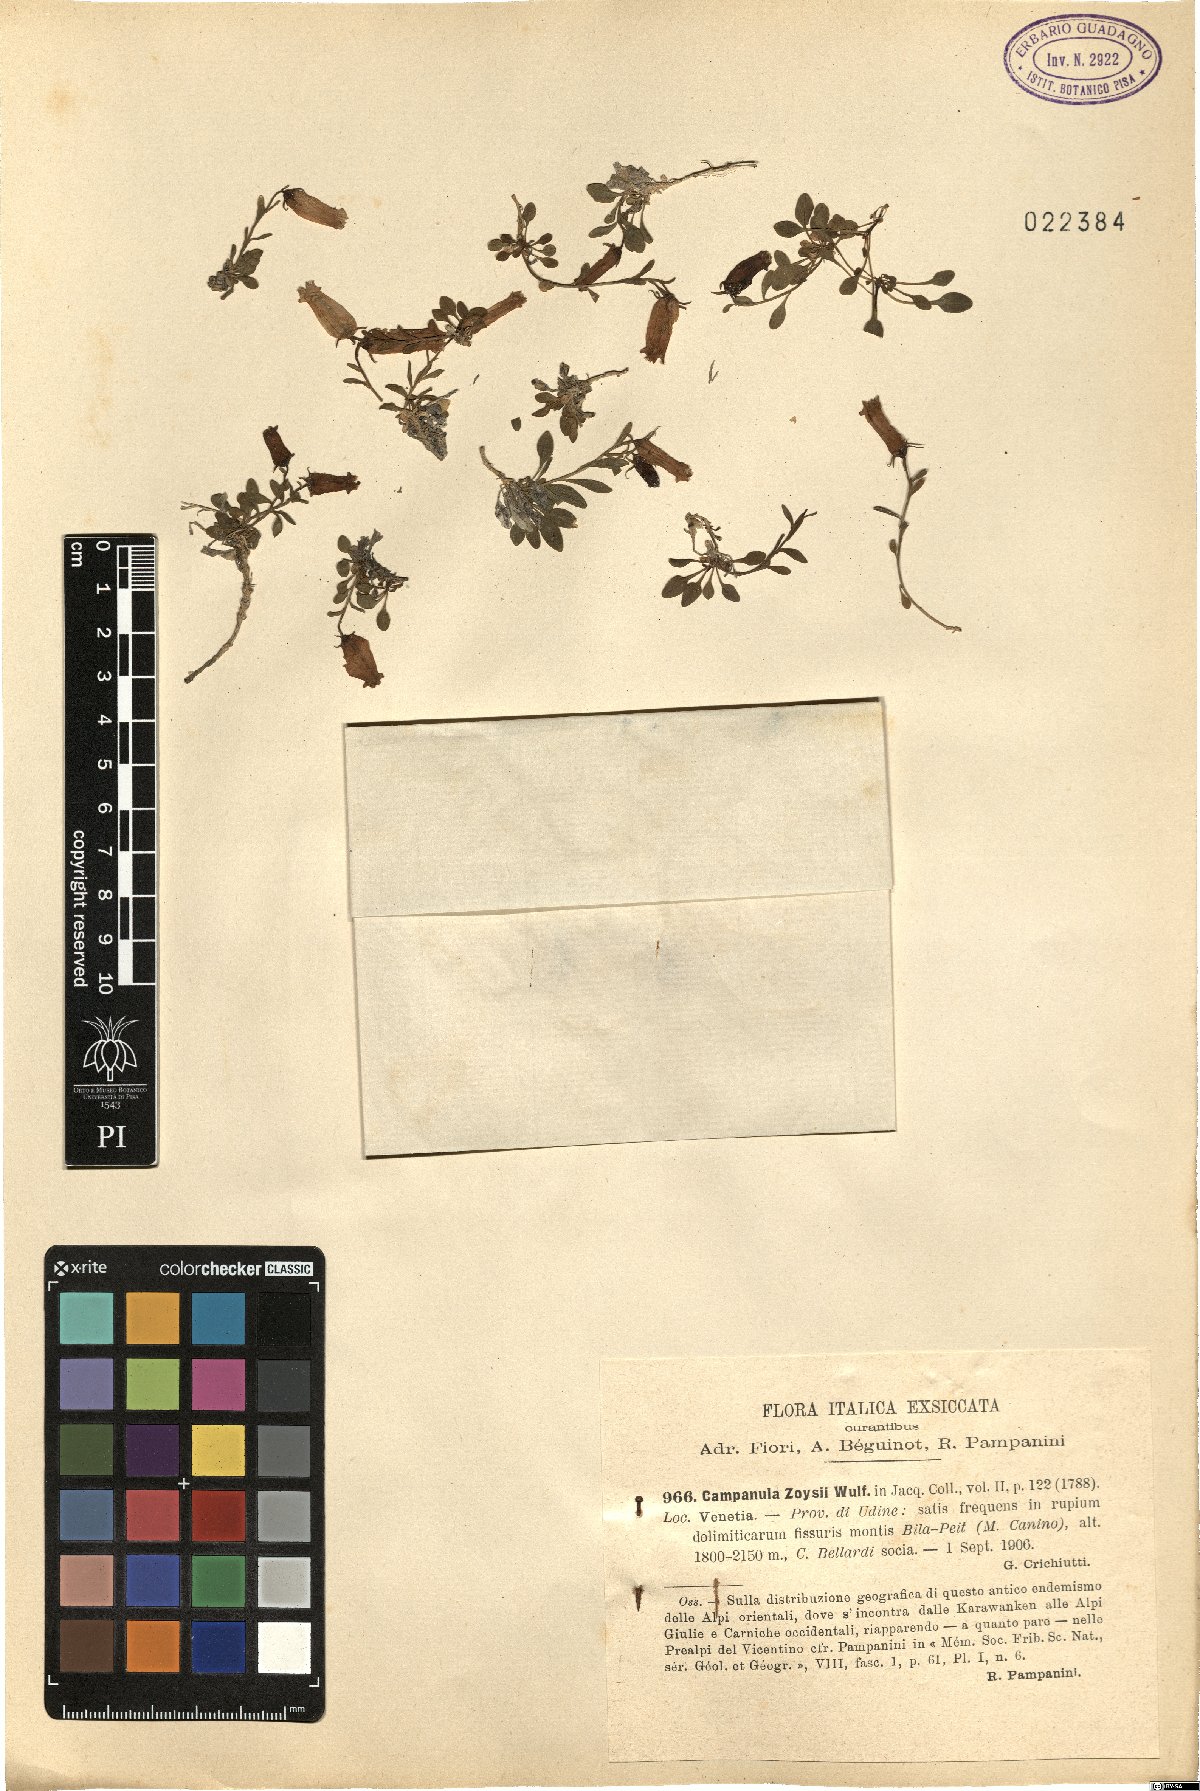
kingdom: Plantae
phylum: Tracheophyta
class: Magnoliopsida
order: Asterales
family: Campanulaceae
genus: Favratia
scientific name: Favratia zoysii
